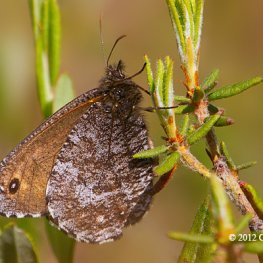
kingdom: Animalia
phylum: Arthropoda
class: Insecta
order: Lepidoptera
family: Nymphalidae
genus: Oeneis
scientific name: Oeneis jutta
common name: Jutta Arctic
